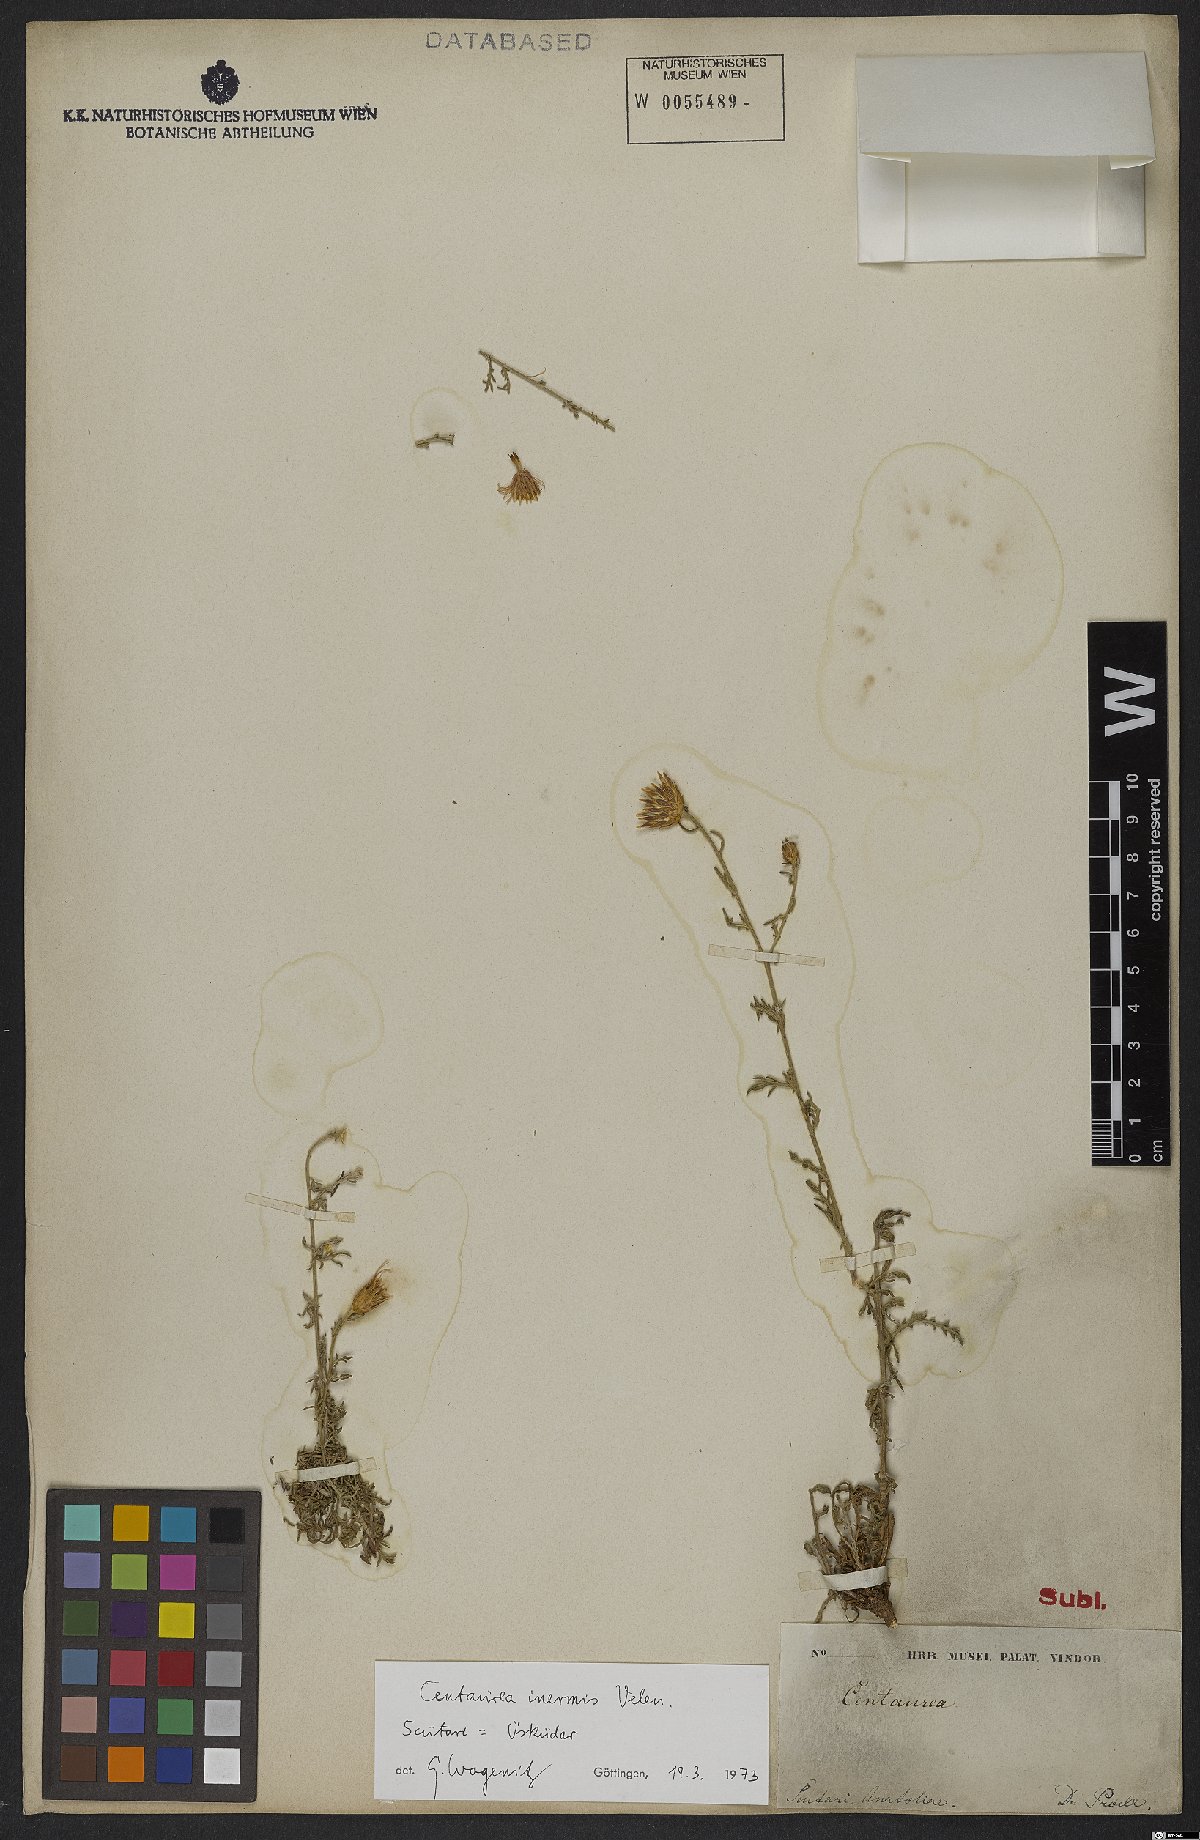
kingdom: Plantae
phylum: Tracheophyta
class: Magnoliopsida
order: Asterales
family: Asteraceae
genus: Centaurea
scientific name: Centaurea inermis
